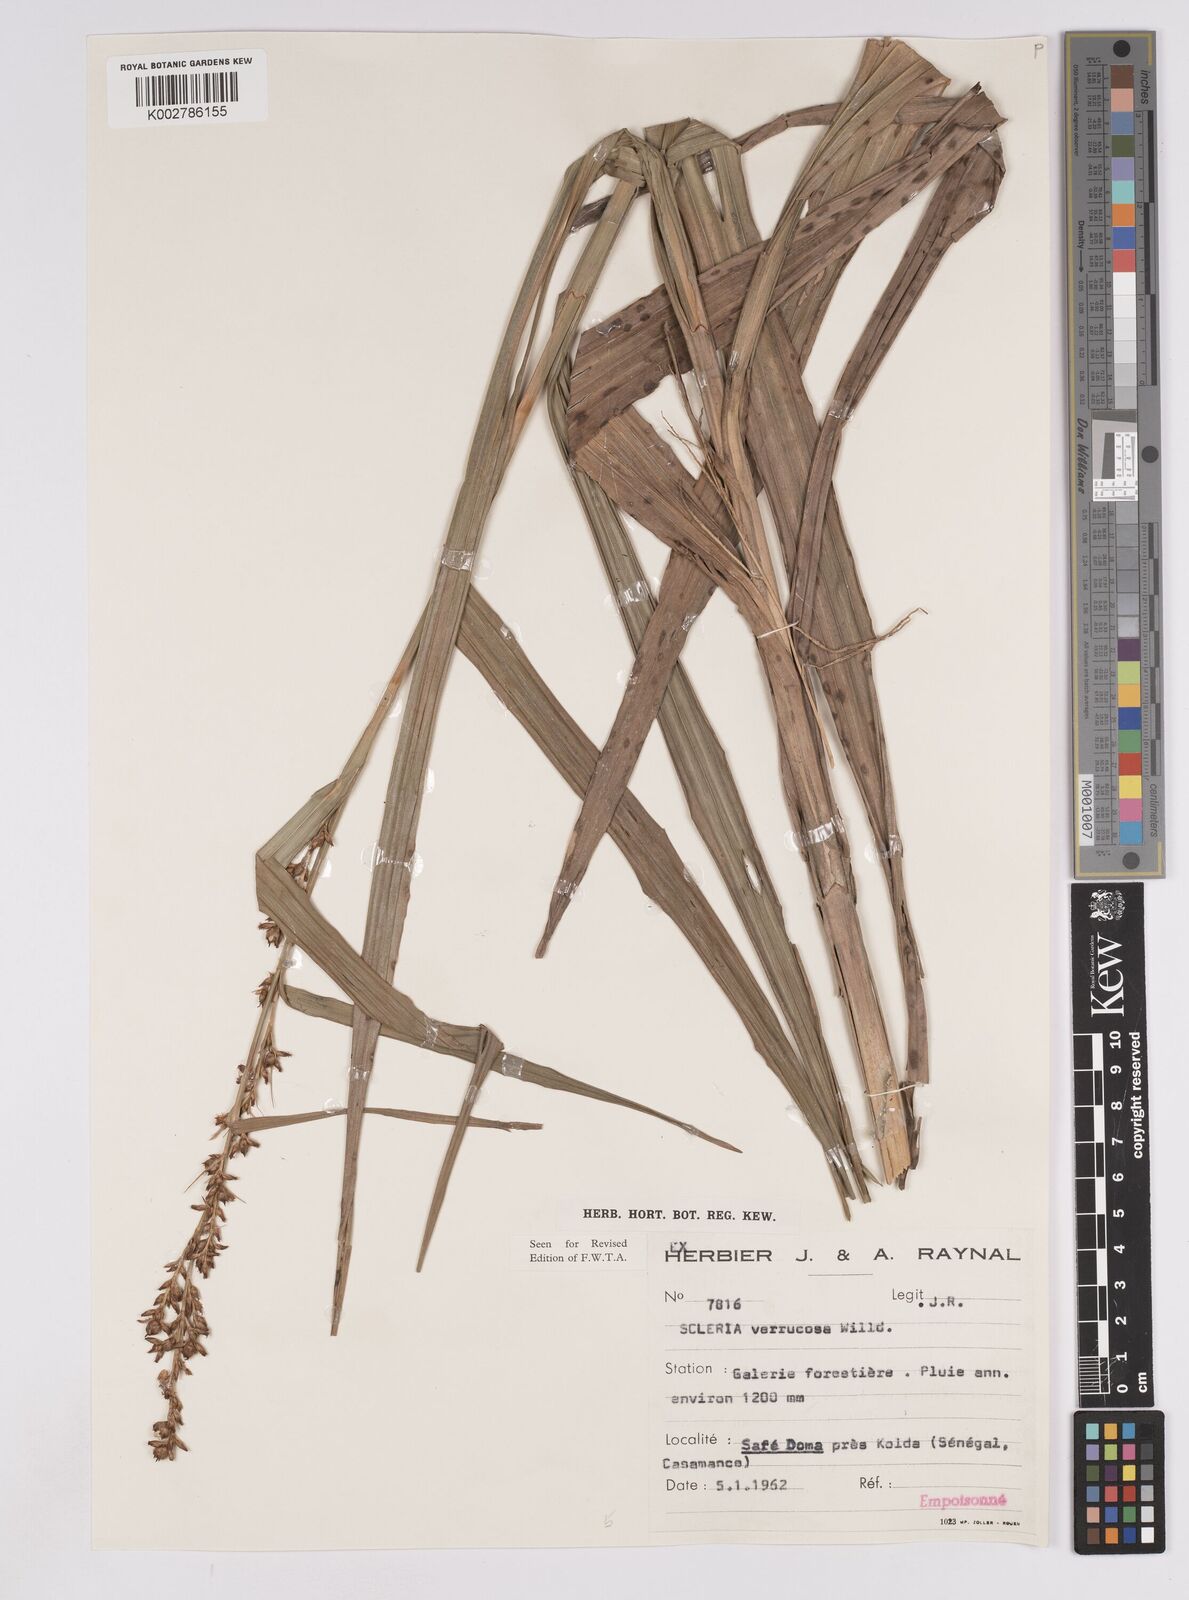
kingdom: Plantae
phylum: Tracheophyta
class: Liliopsida
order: Poales
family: Cyperaceae
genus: Scleria
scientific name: Scleria verrucosa
